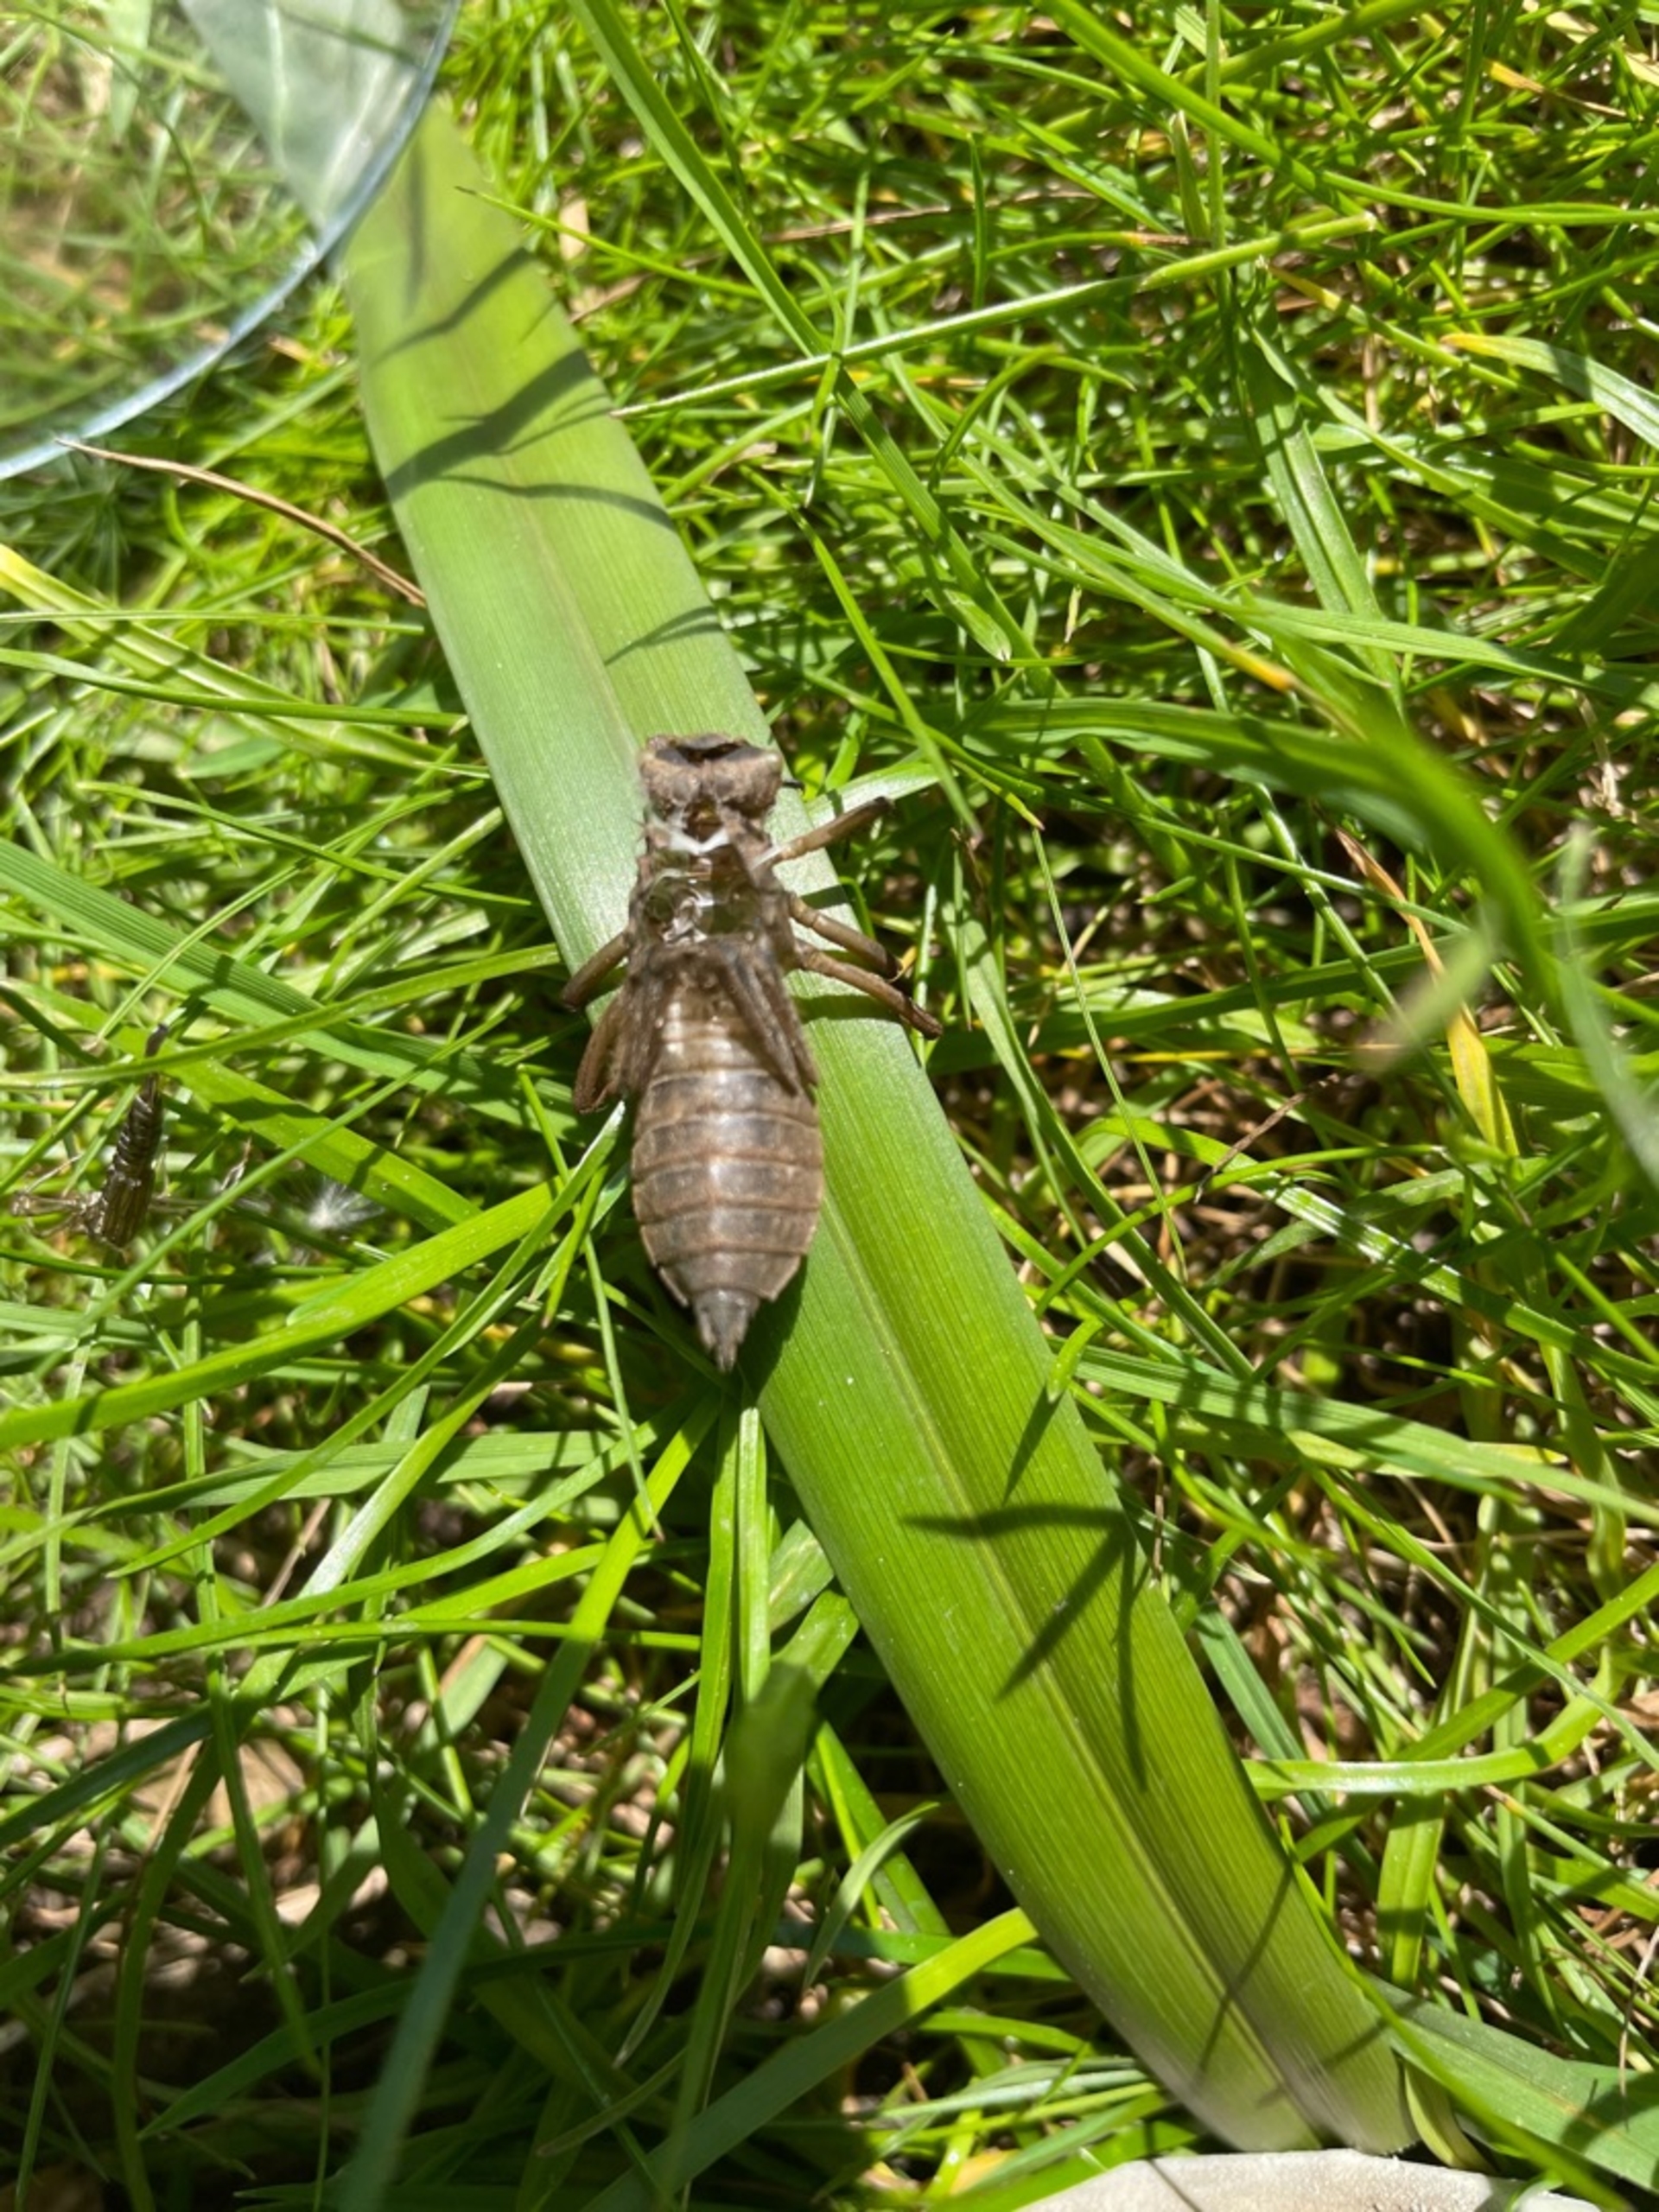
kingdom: Animalia
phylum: Arthropoda
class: Insecta
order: Odonata
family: Libellulidae
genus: Libellula
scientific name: Libellula quadrimaculata
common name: Fireplettet libel
